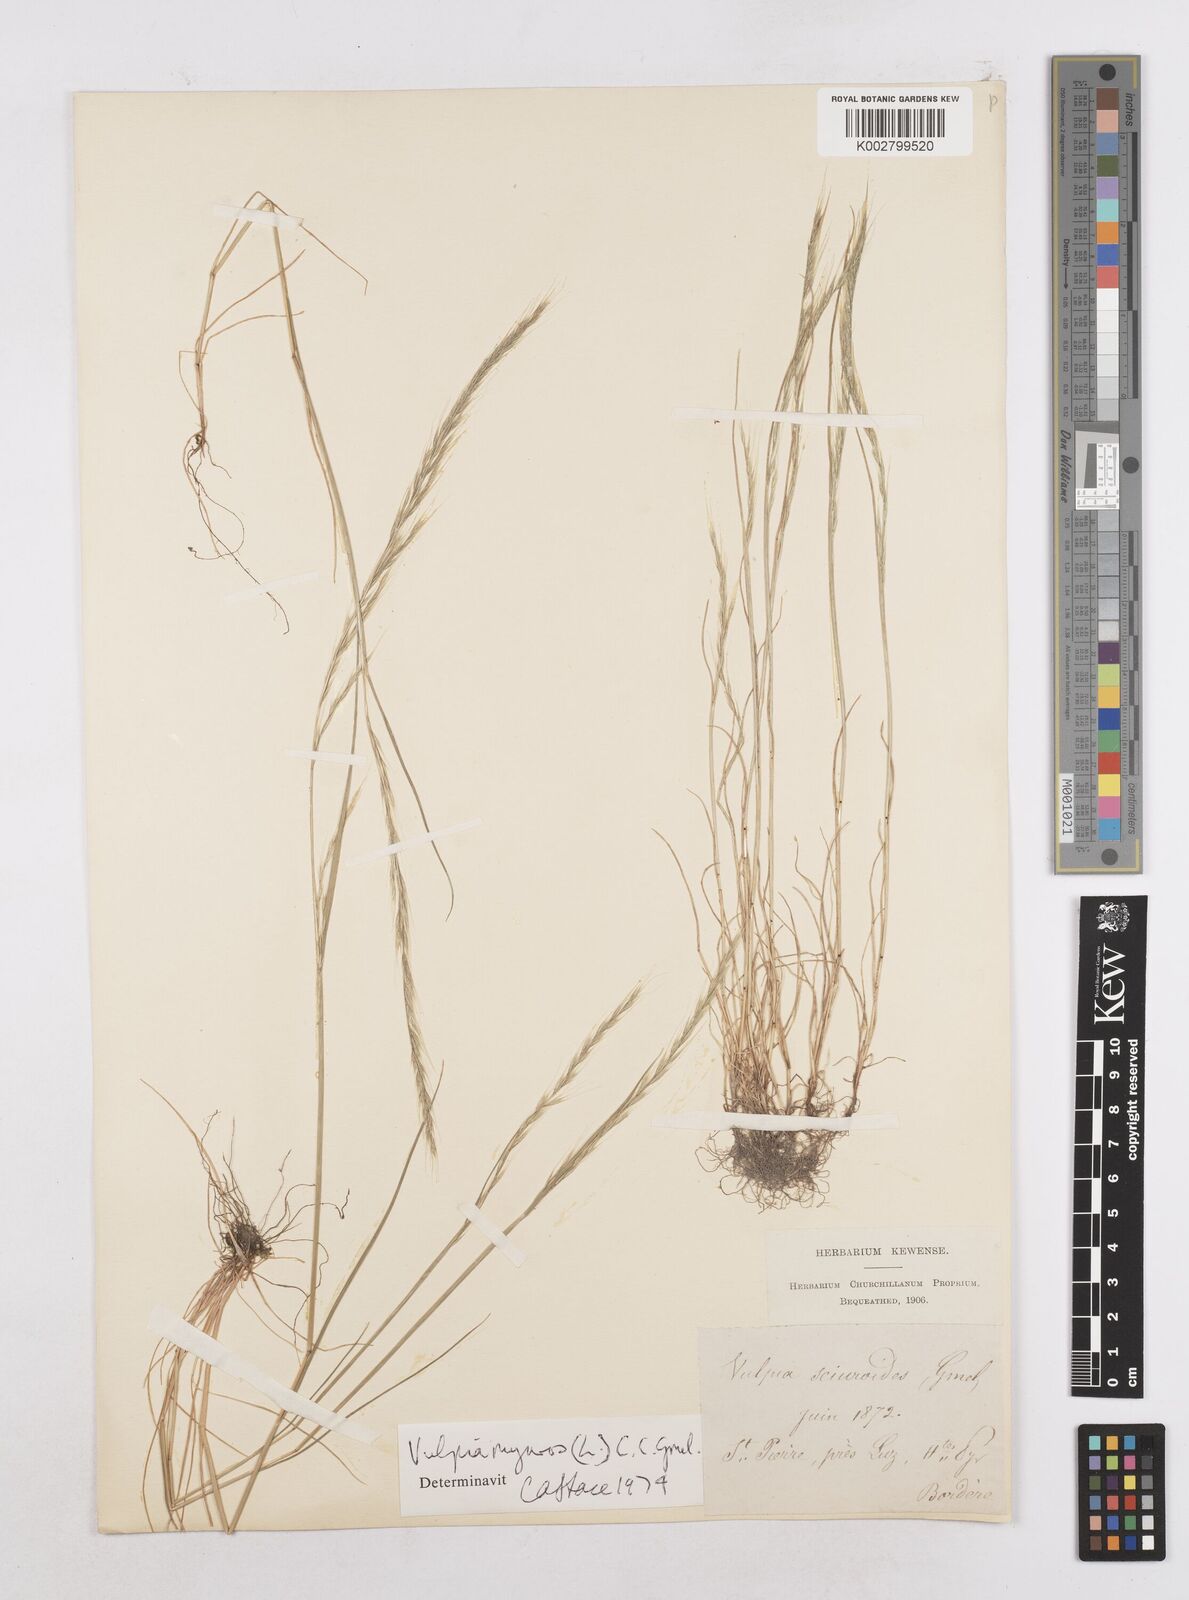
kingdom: Plantae
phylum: Tracheophyta
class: Liliopsida
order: Poales
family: Poaceae
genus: Festuca
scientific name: Festuca myuros
